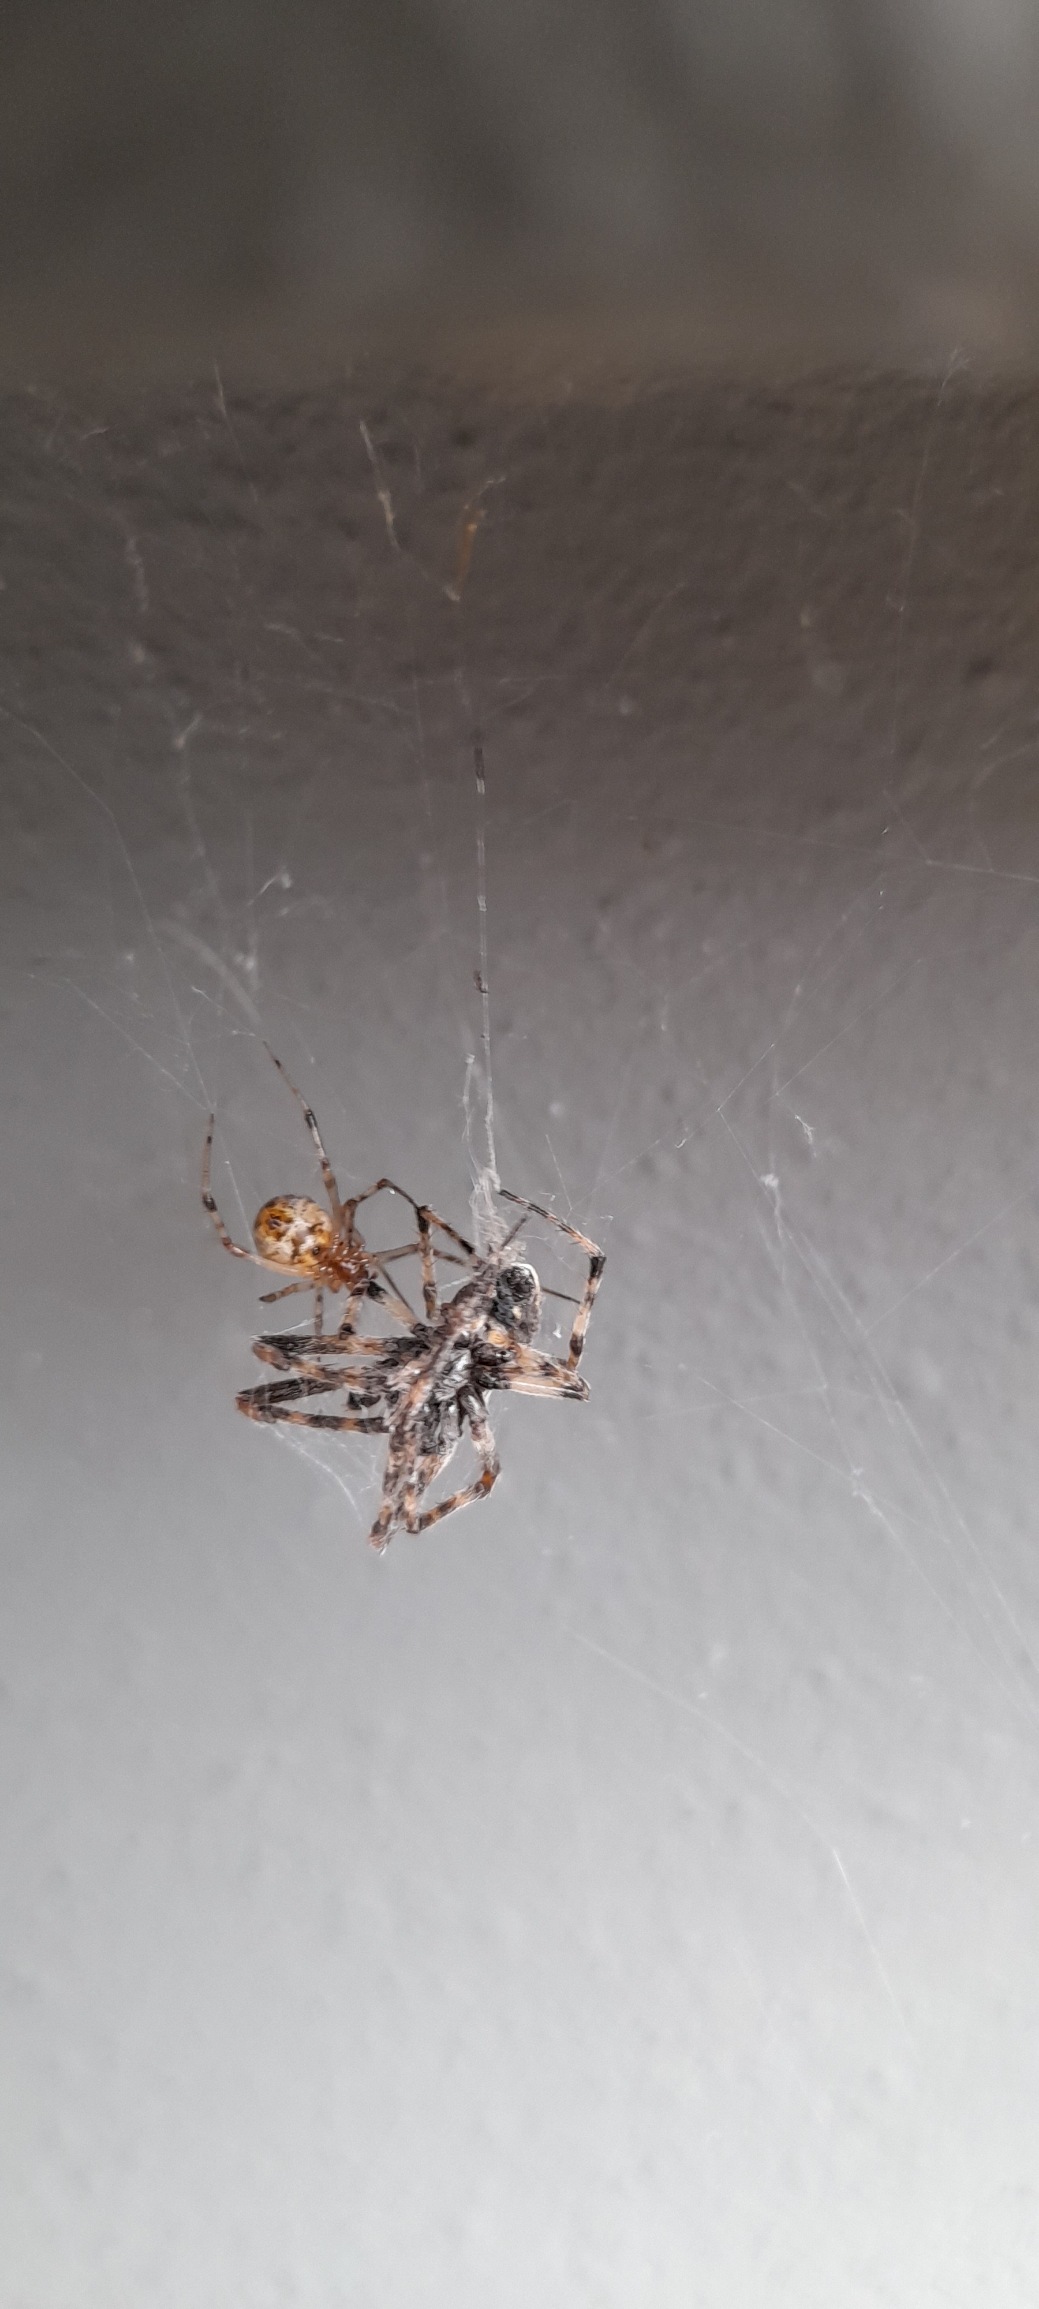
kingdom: Animalia
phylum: Arthropoda
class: Arachnida
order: Araneae
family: Theridiidae
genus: Parasteatoda
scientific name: Parasteatoda tepidariorum
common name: Væksthusspinder
